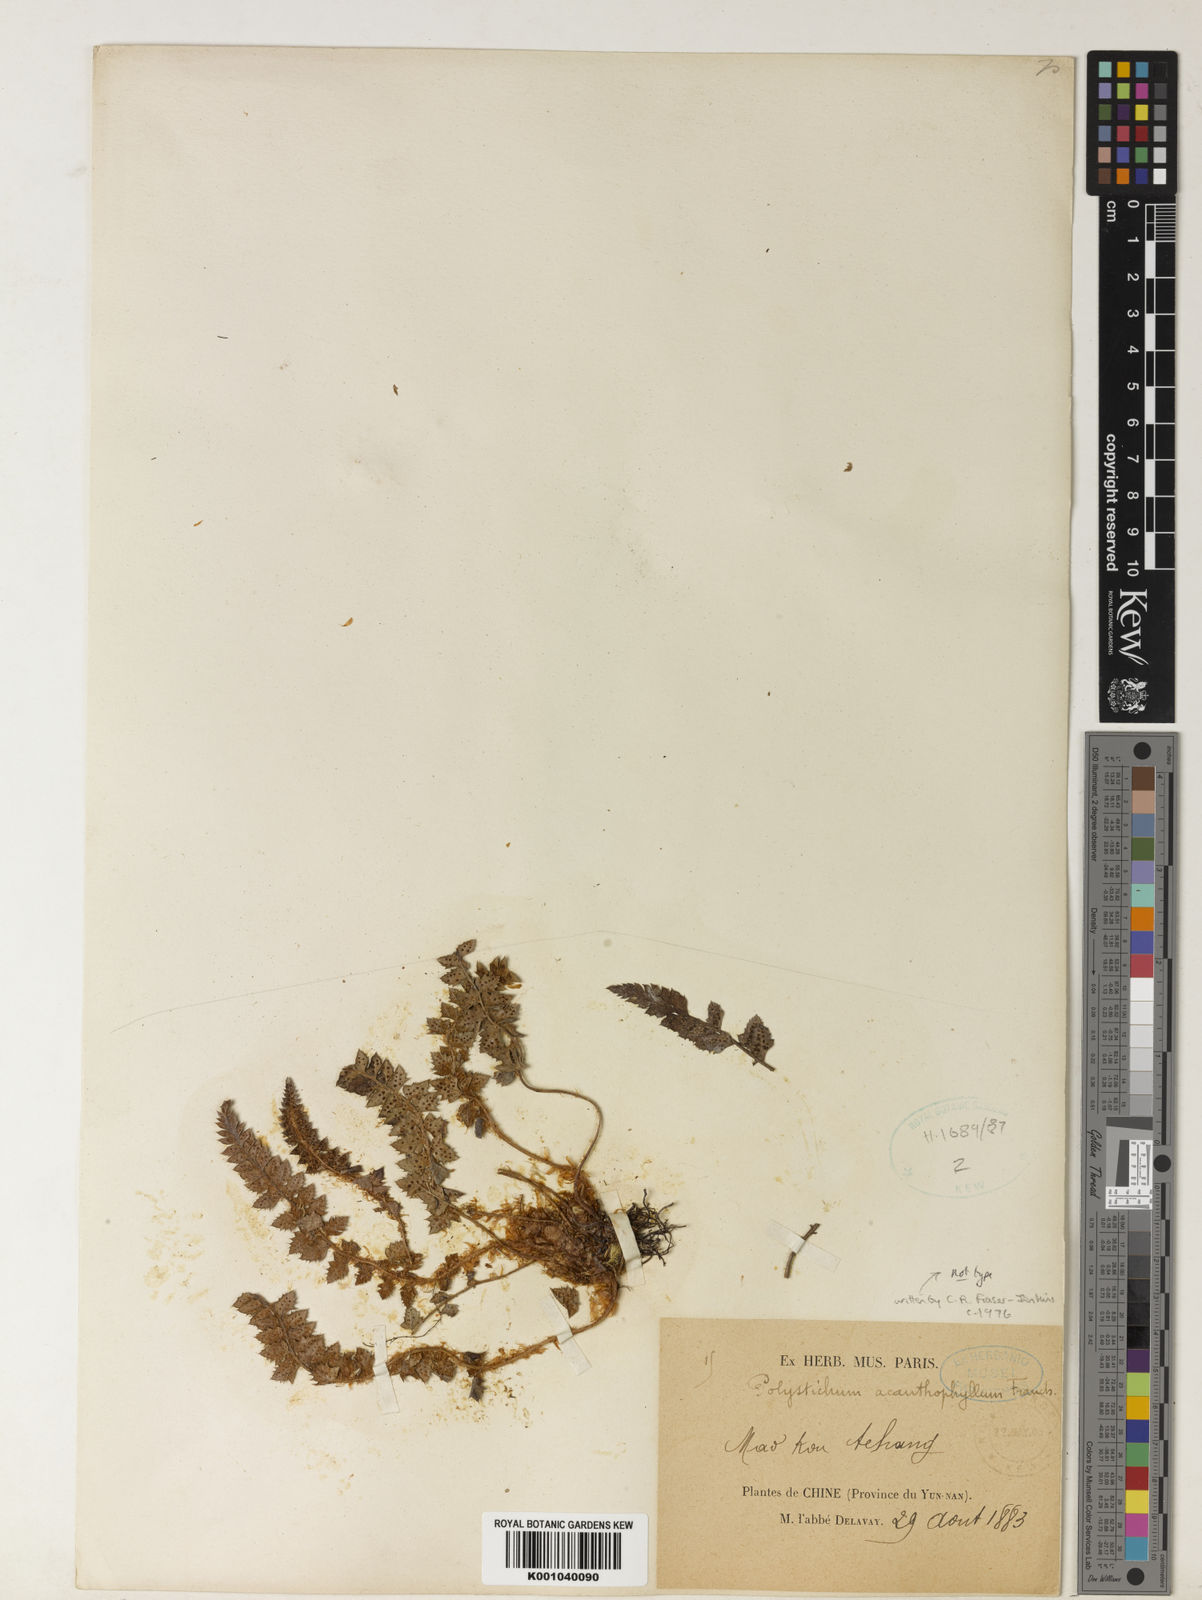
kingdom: Plantae
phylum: Tracheophyta
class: Polypodiopsida
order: Polypodiales
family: Dryopteridaceae
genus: Polystichum
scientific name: Polystichum acanthophyllum
